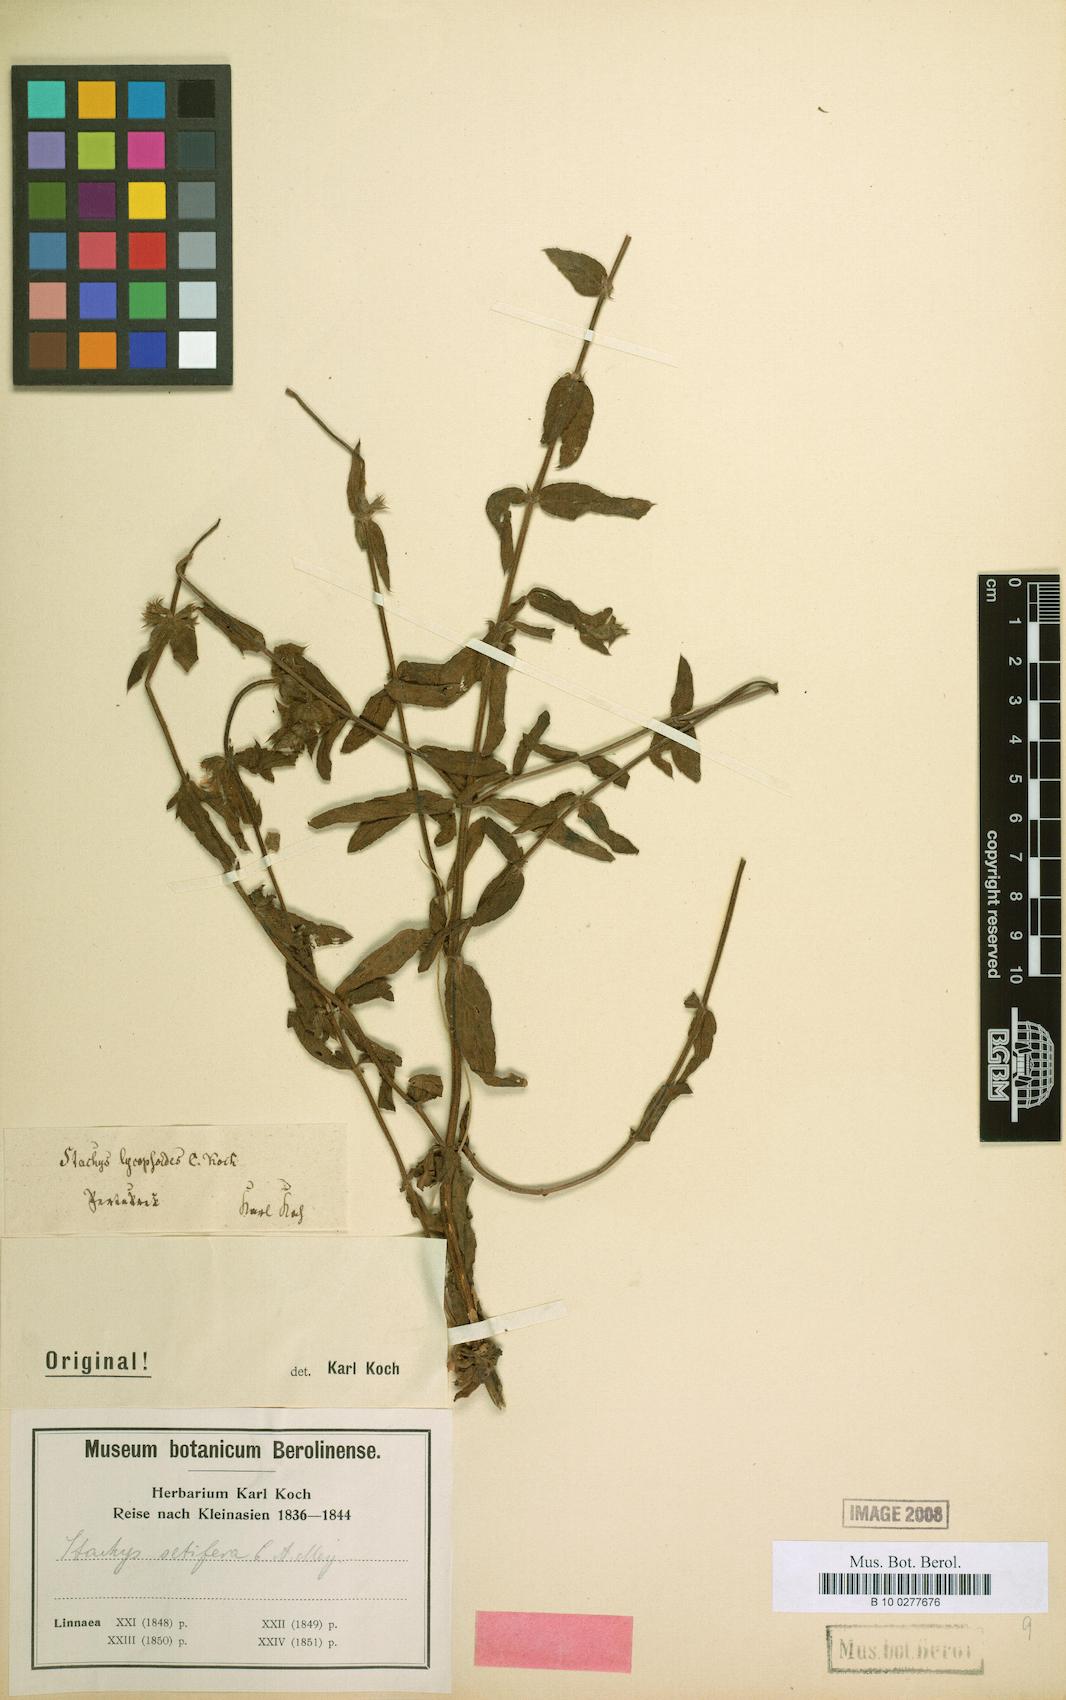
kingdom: Plantae
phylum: Tracheophyta
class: Magnoliopsida
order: Lamiales
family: Lamiaceae
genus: Stachys
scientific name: Stachys setifera
